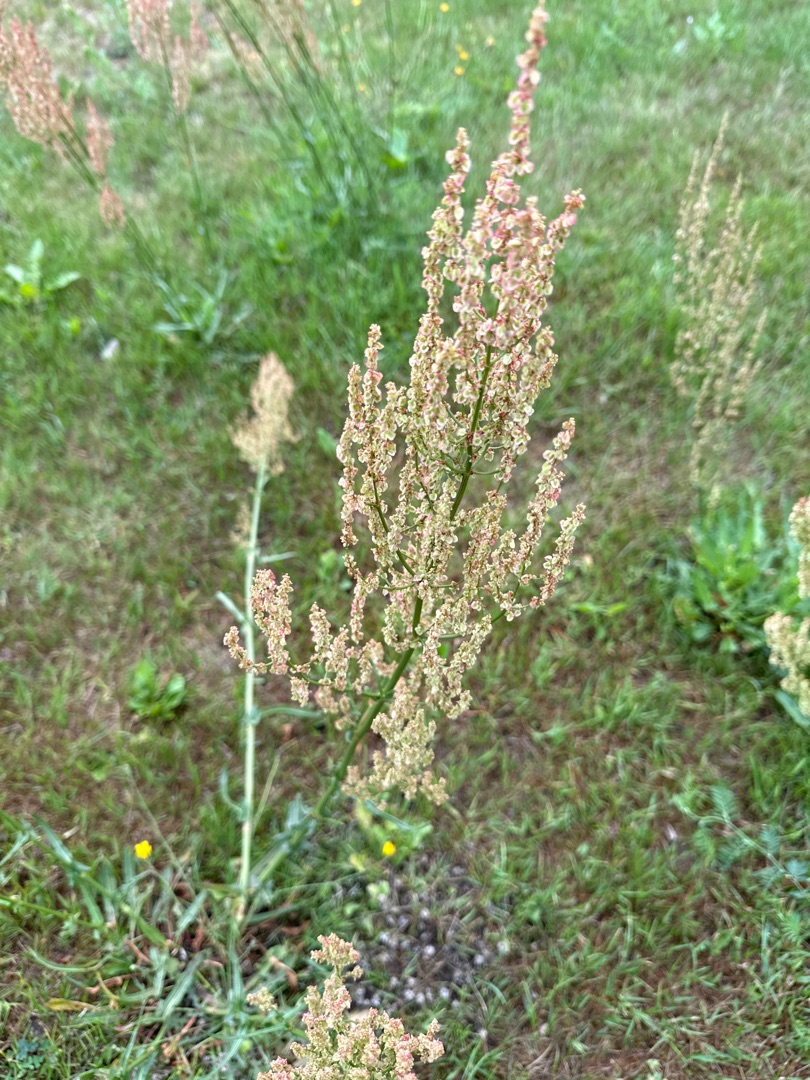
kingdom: Plantae
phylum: Tracheophyta
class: Magnoliopsida
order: Caryophyllales
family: Polygonaceae
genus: Rumex
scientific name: Rumex thyrsiflorus
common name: Dusk-syre
